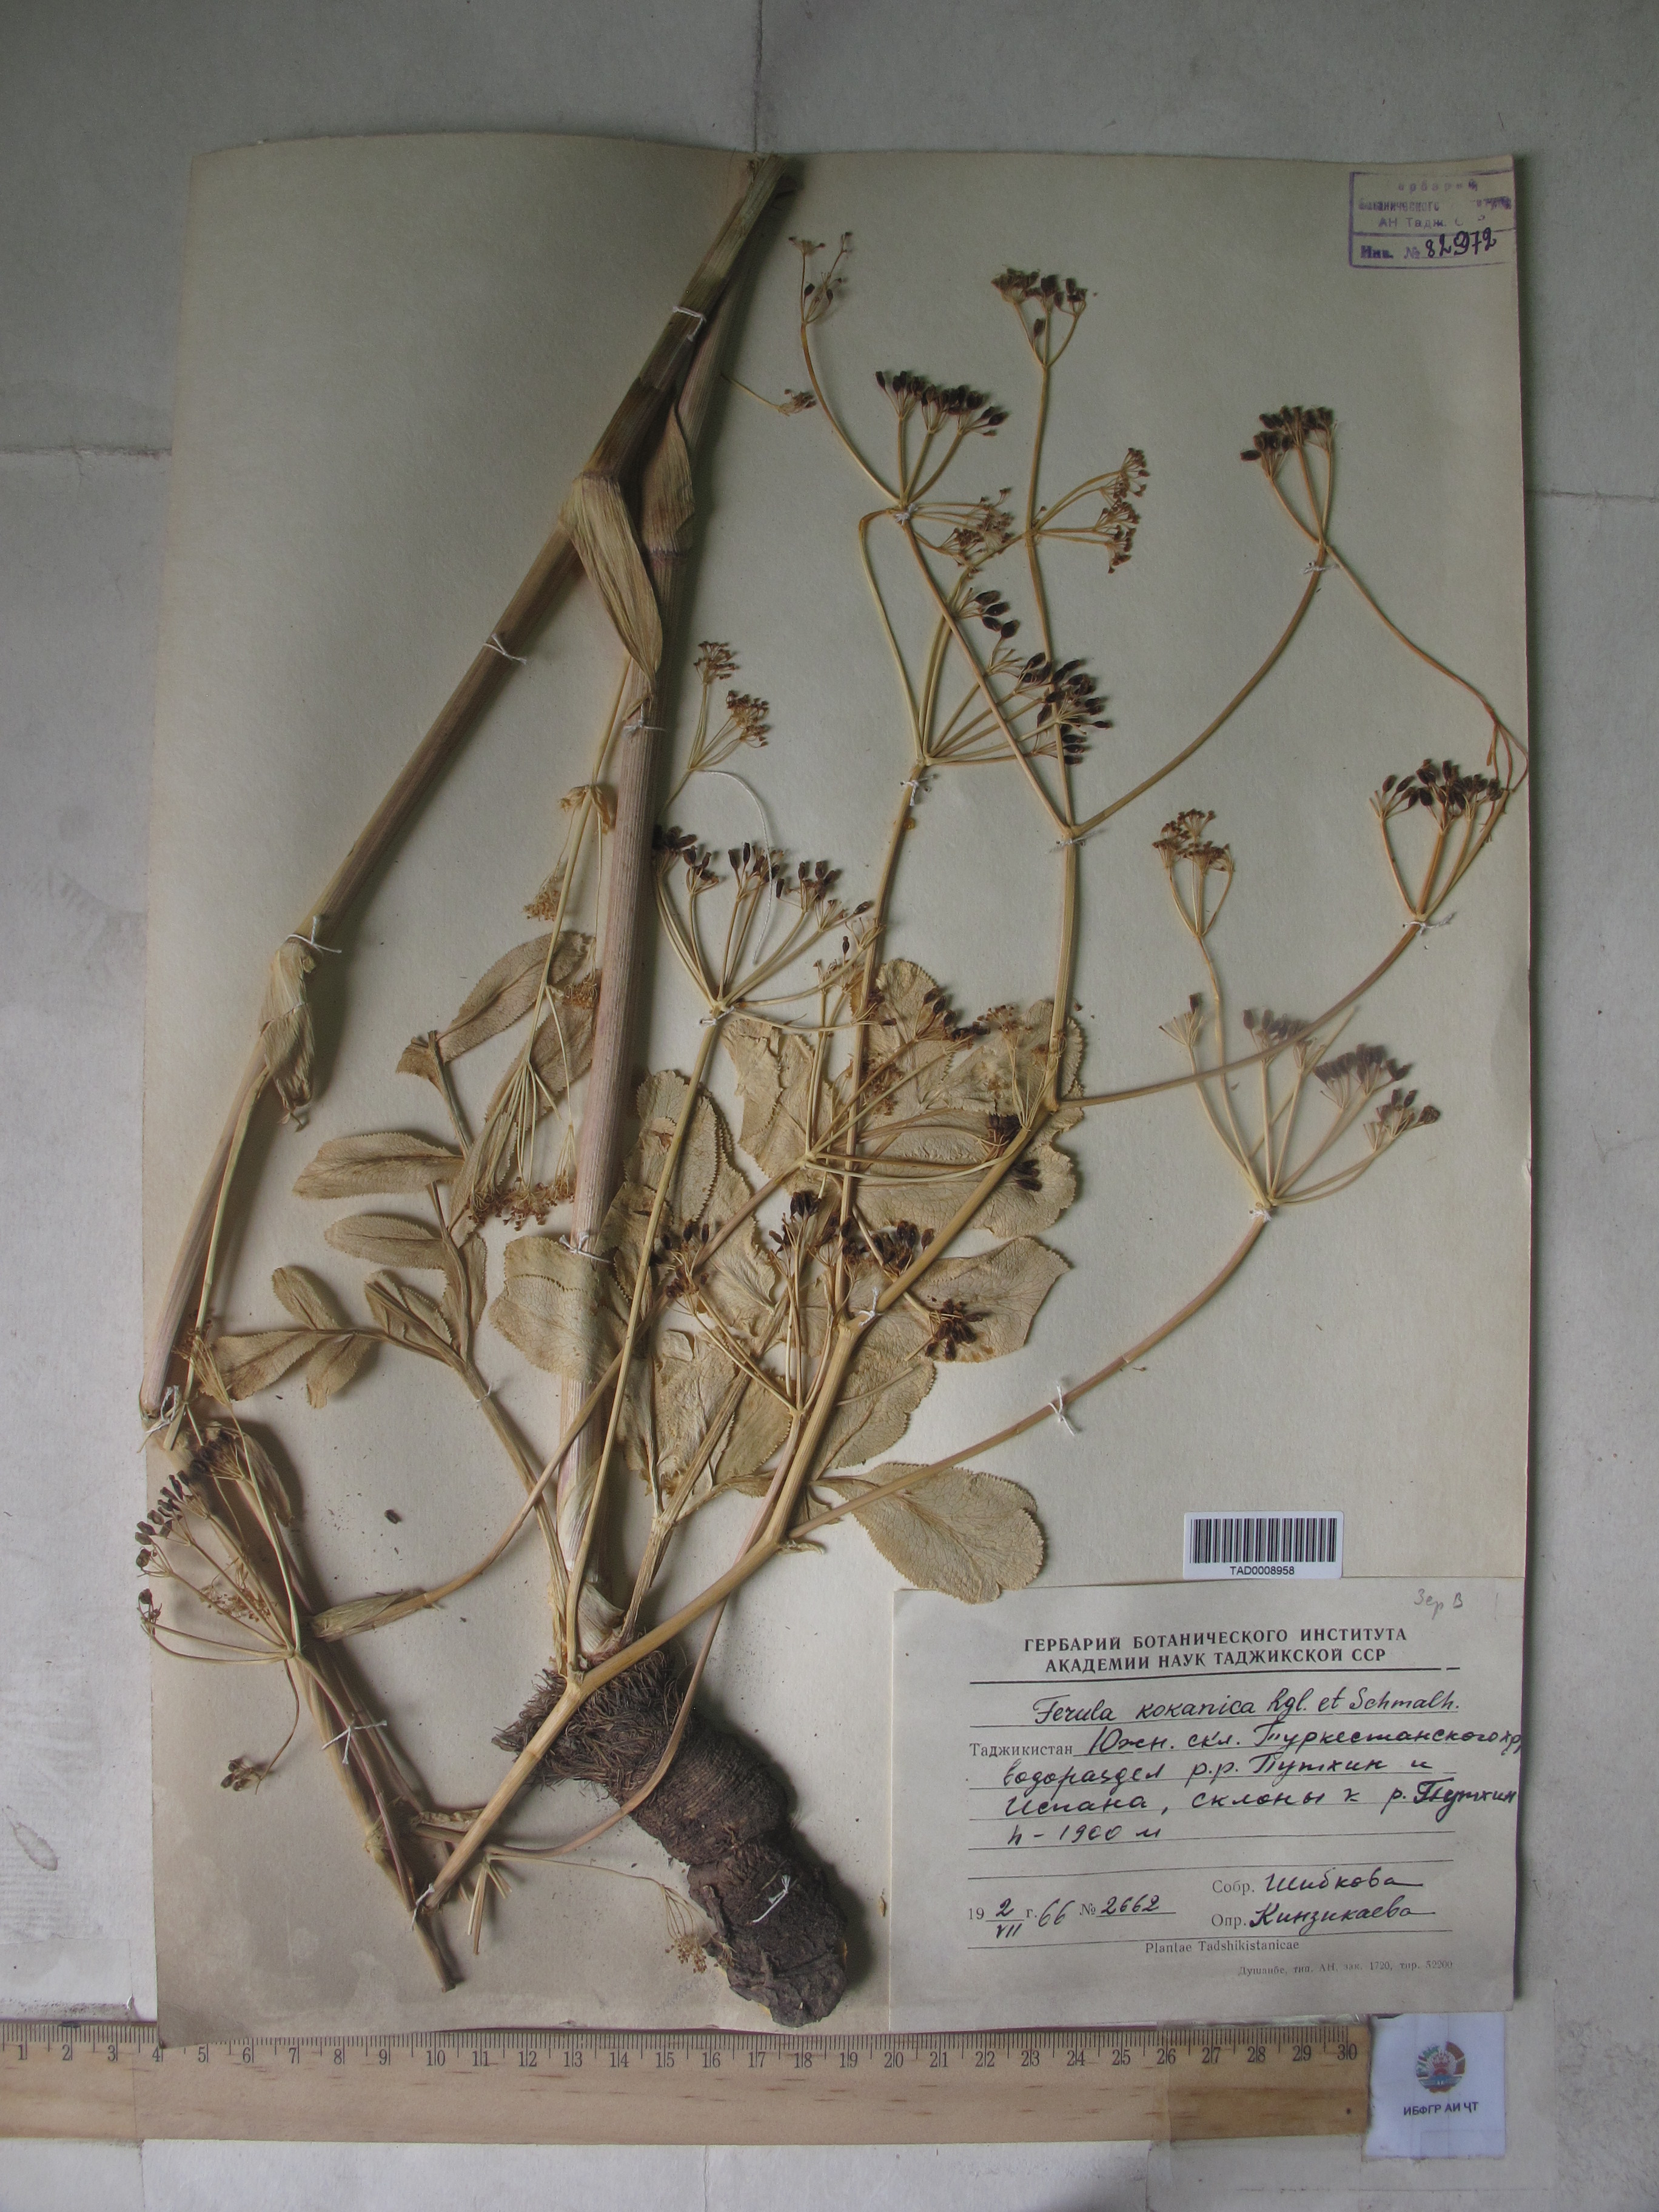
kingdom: Plantae
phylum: Tracheophyta
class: Magnoliopsida
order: Apiales
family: Apiaceae
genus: Ferula
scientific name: Ferula kokanica
